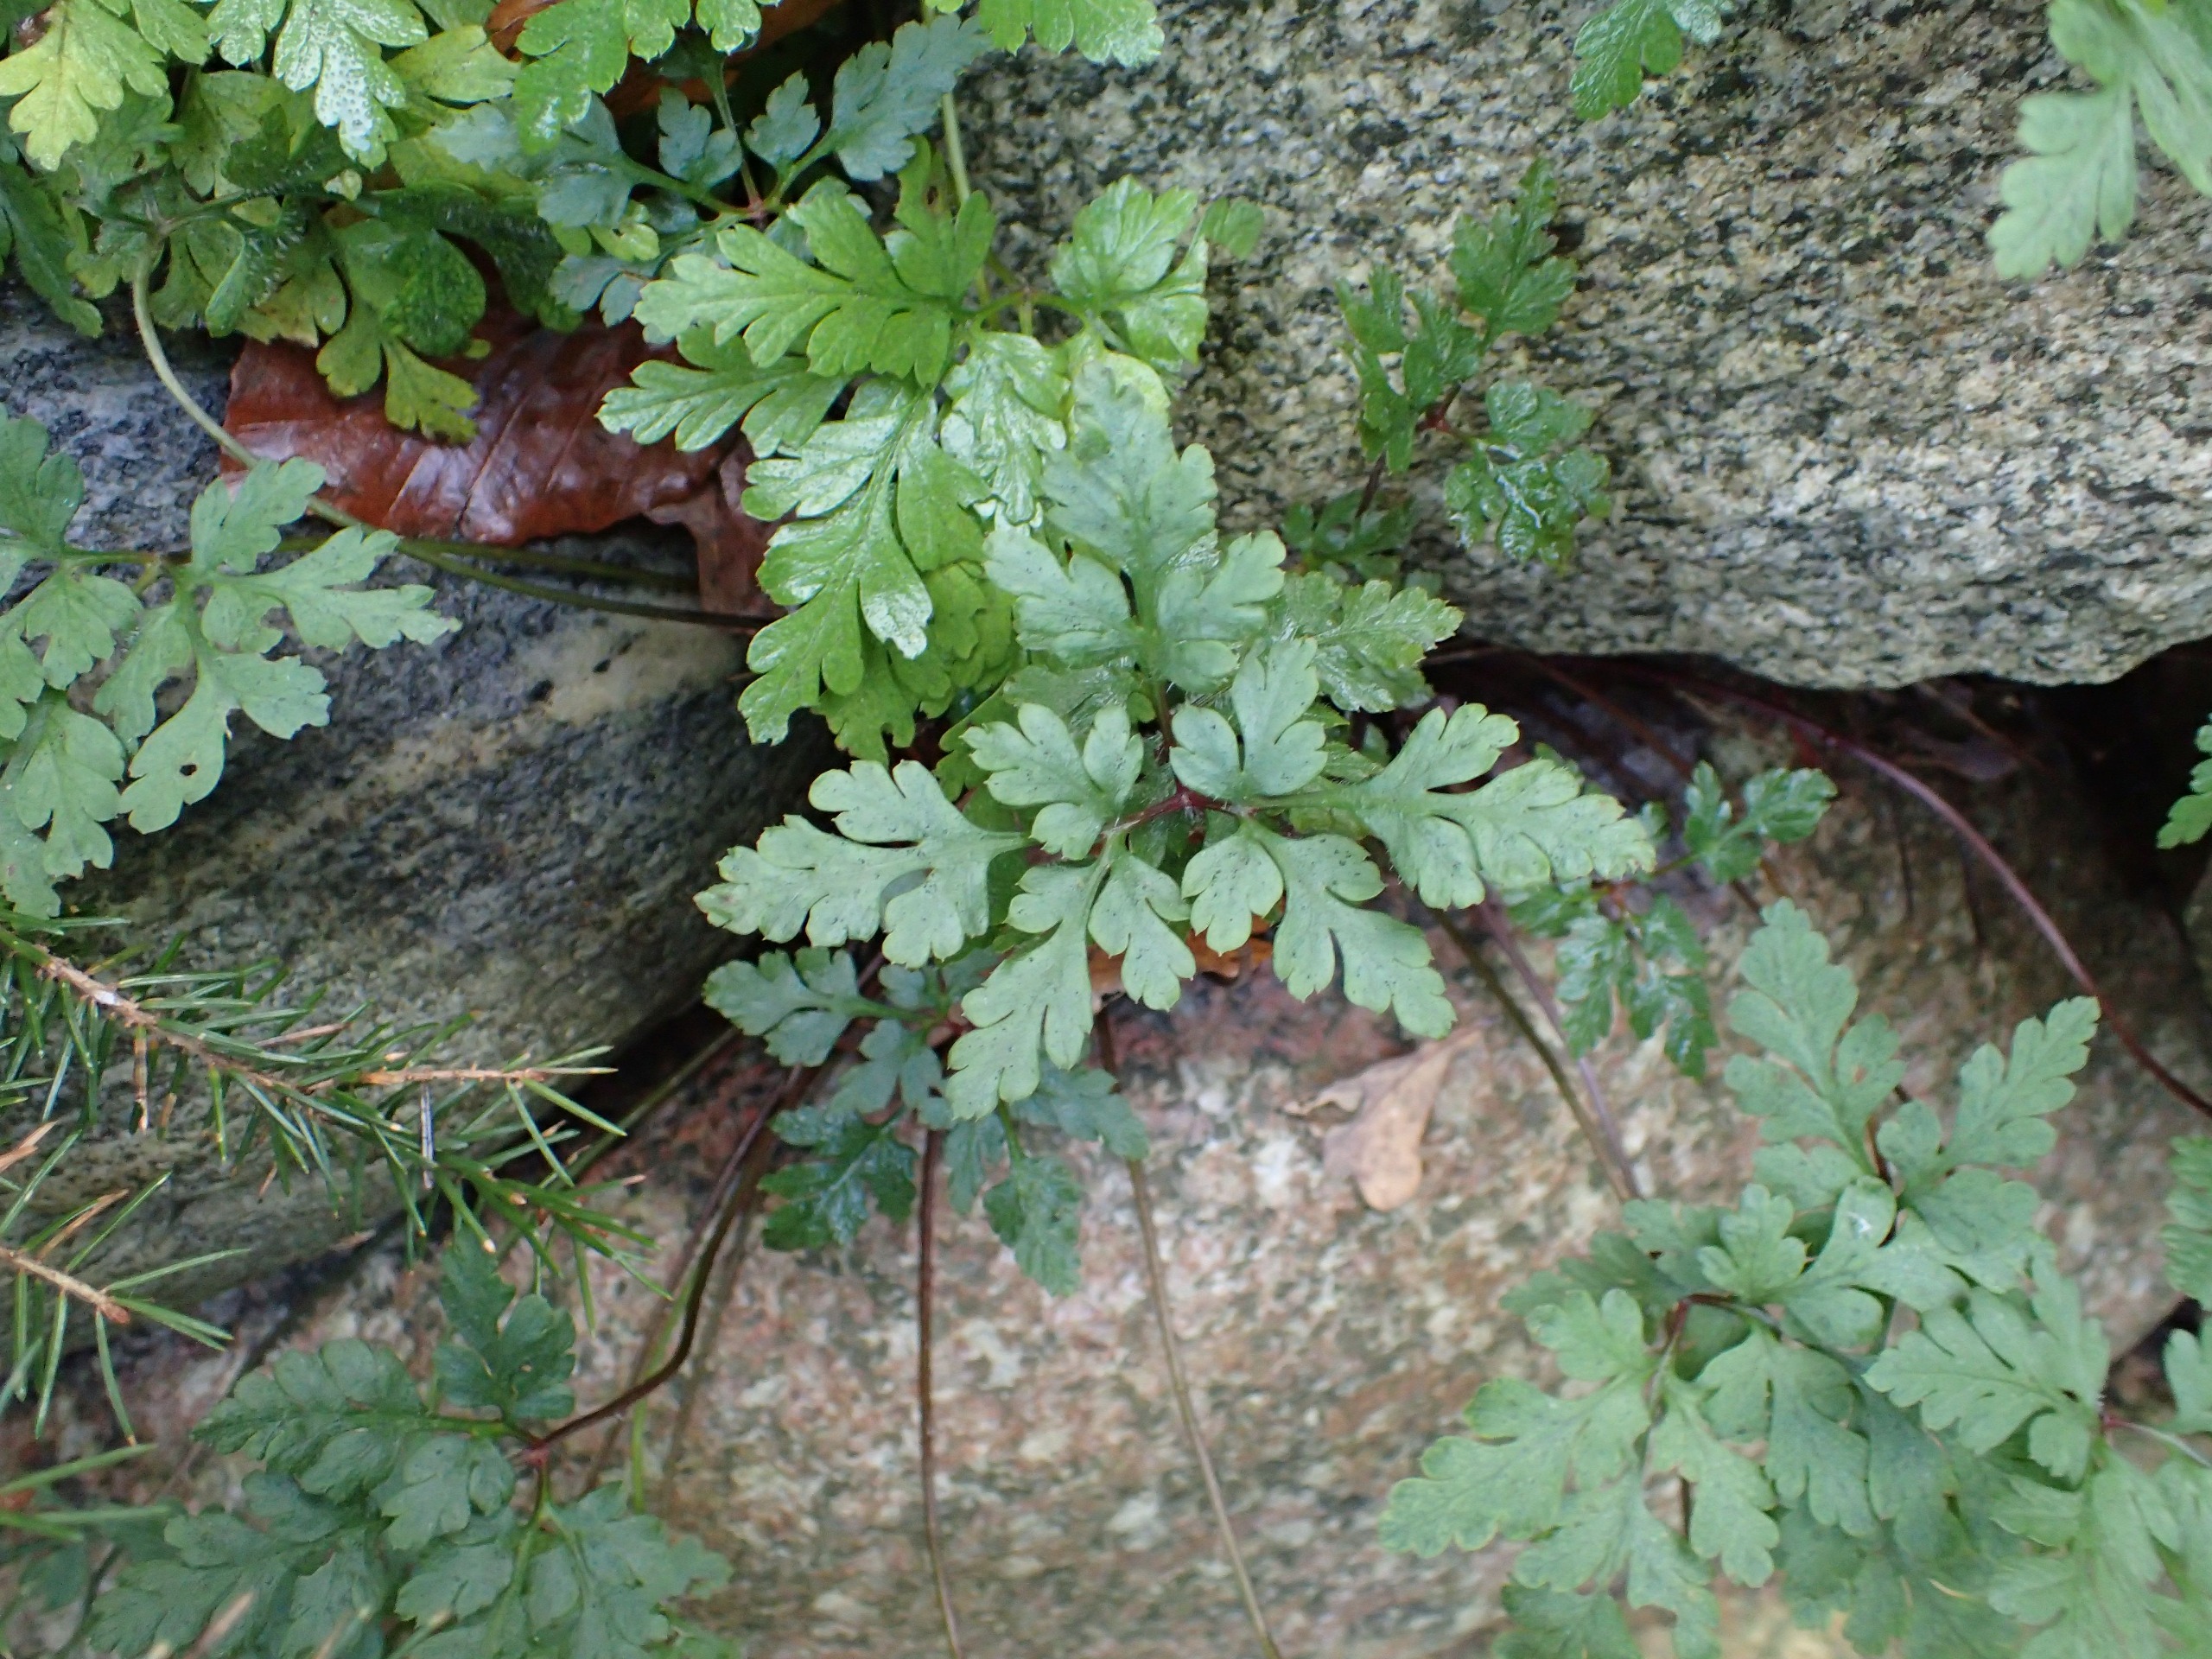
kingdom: Plantae
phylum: Tracheophyta
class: Magnoliopsida
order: Geraniales
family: Geraniaceae
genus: Geranium
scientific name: Geranium robertianum
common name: Stinkende storkenæb
